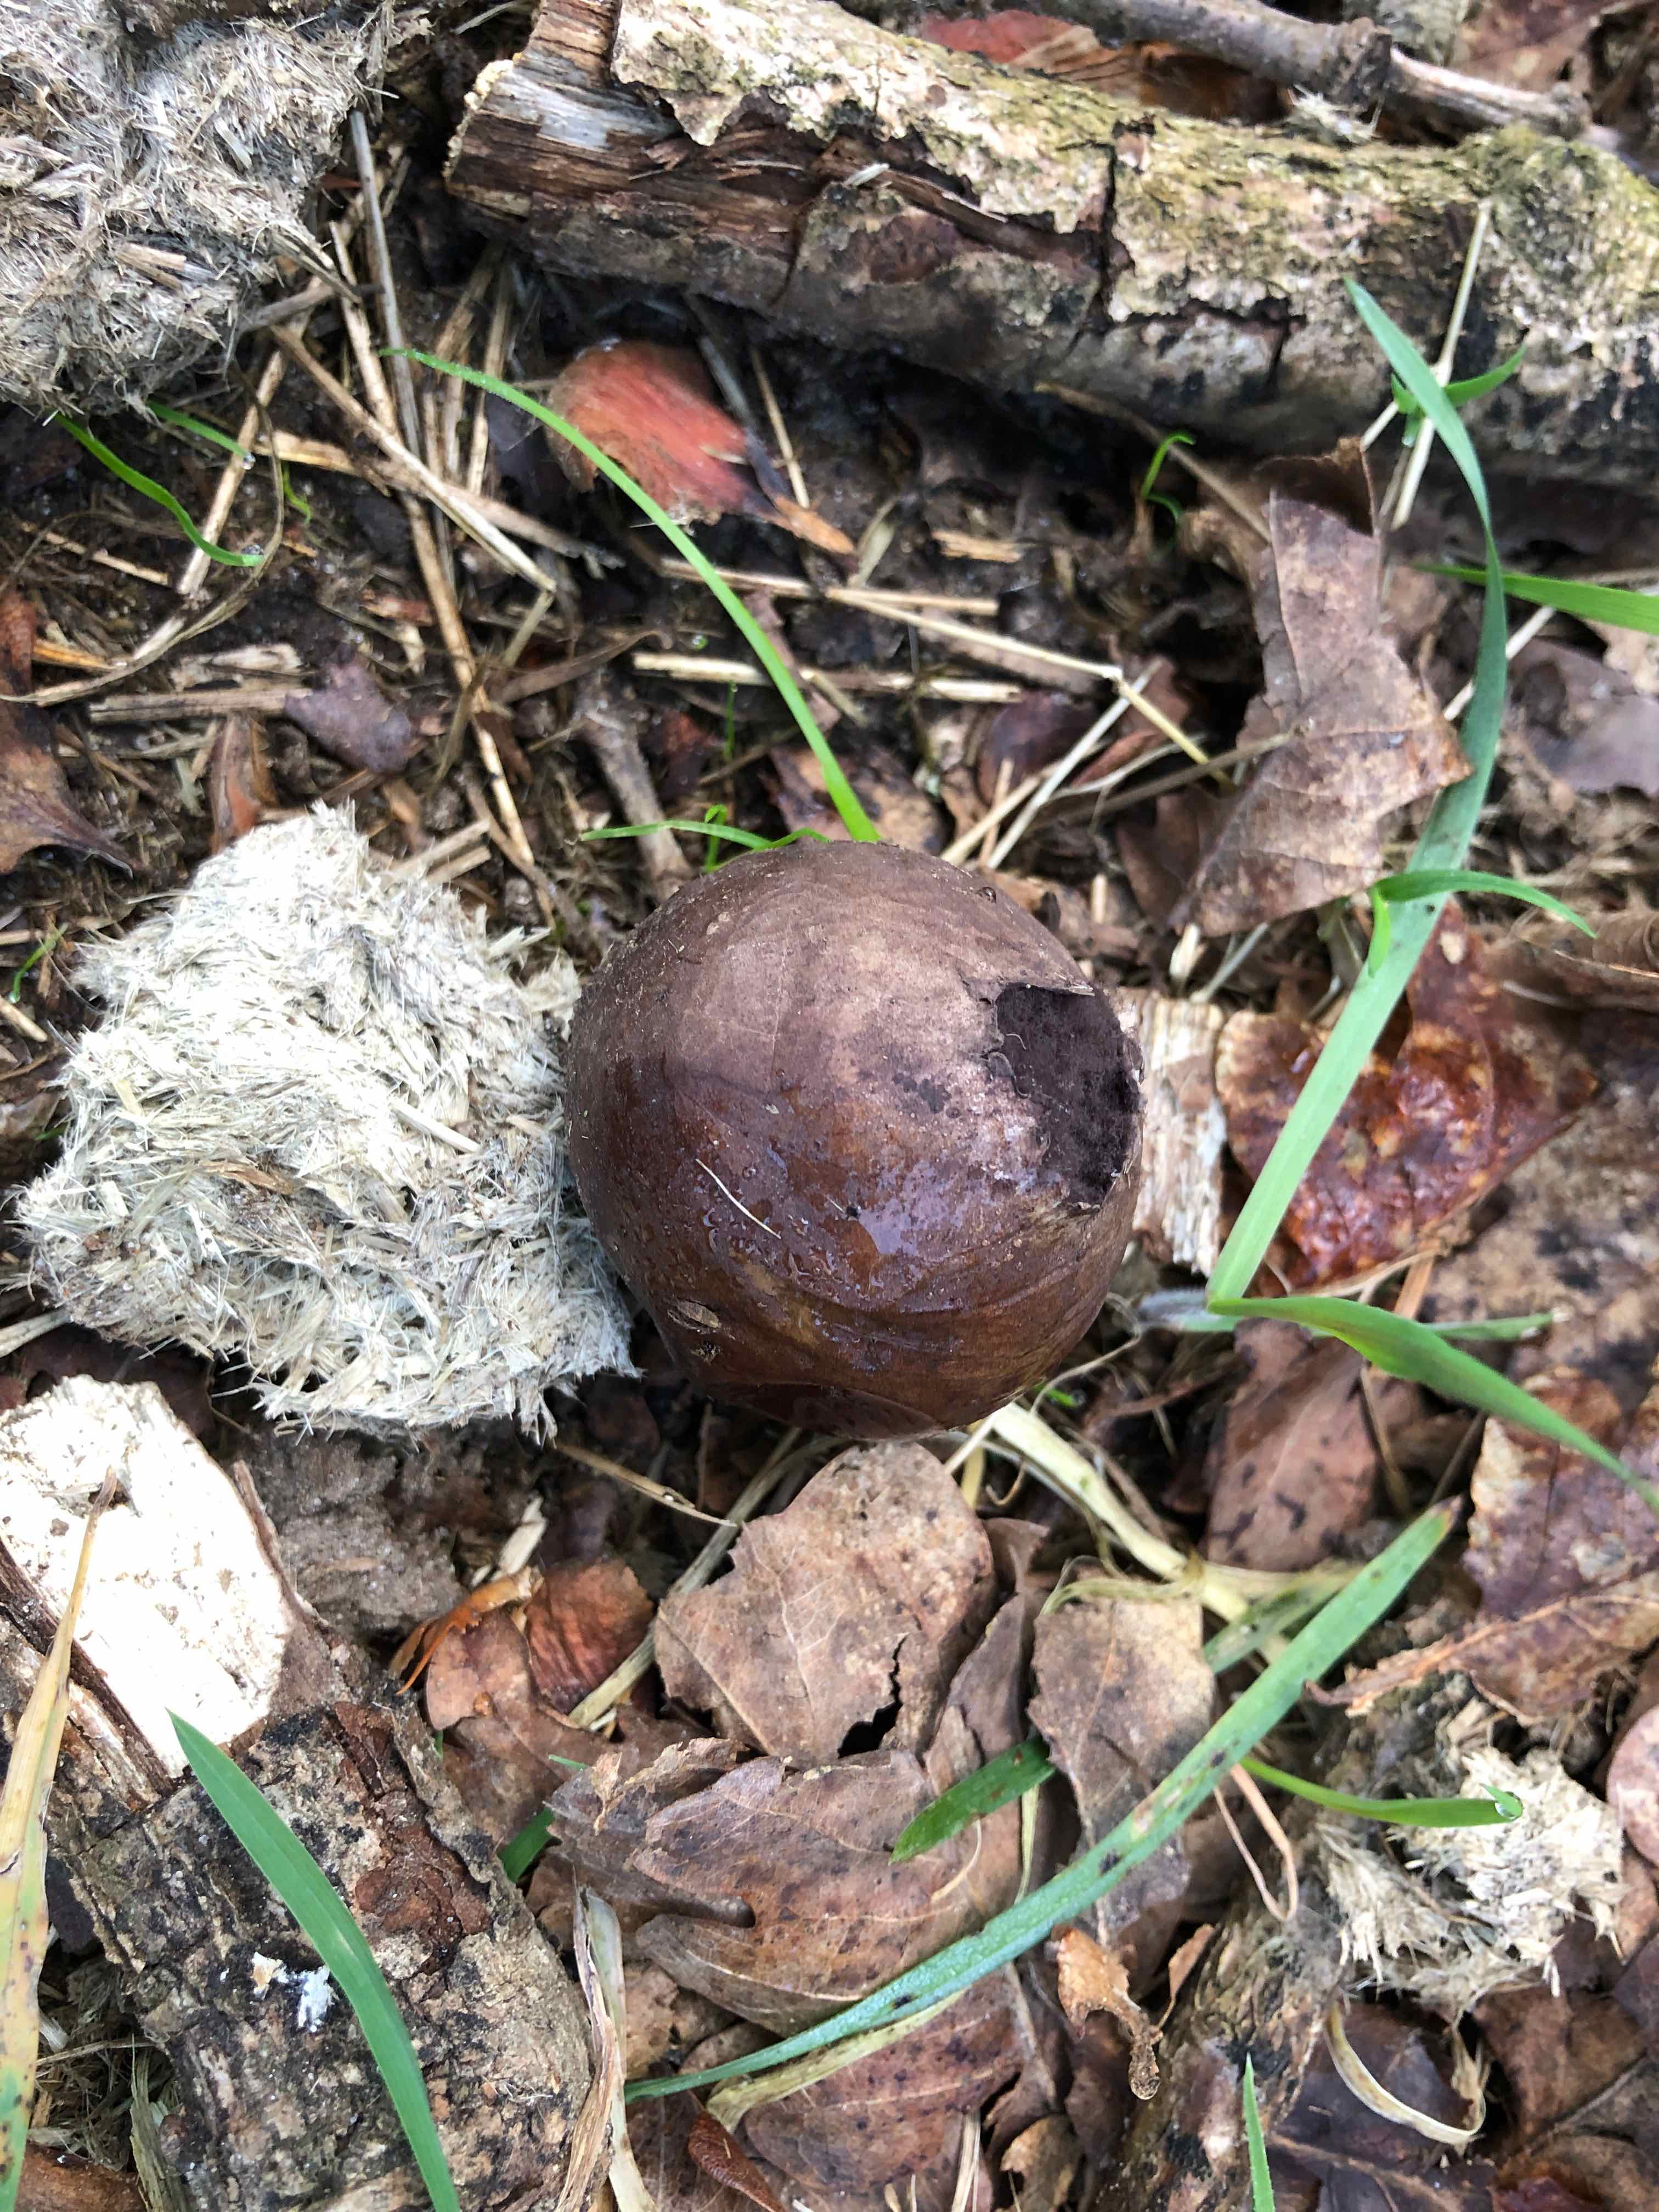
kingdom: Fungi
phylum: Basidiomycota
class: Agaricomycetes
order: Agaricales
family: Lycoperdaceae
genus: Bovista
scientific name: Bovista nigrescens
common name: sortagtig bovist
